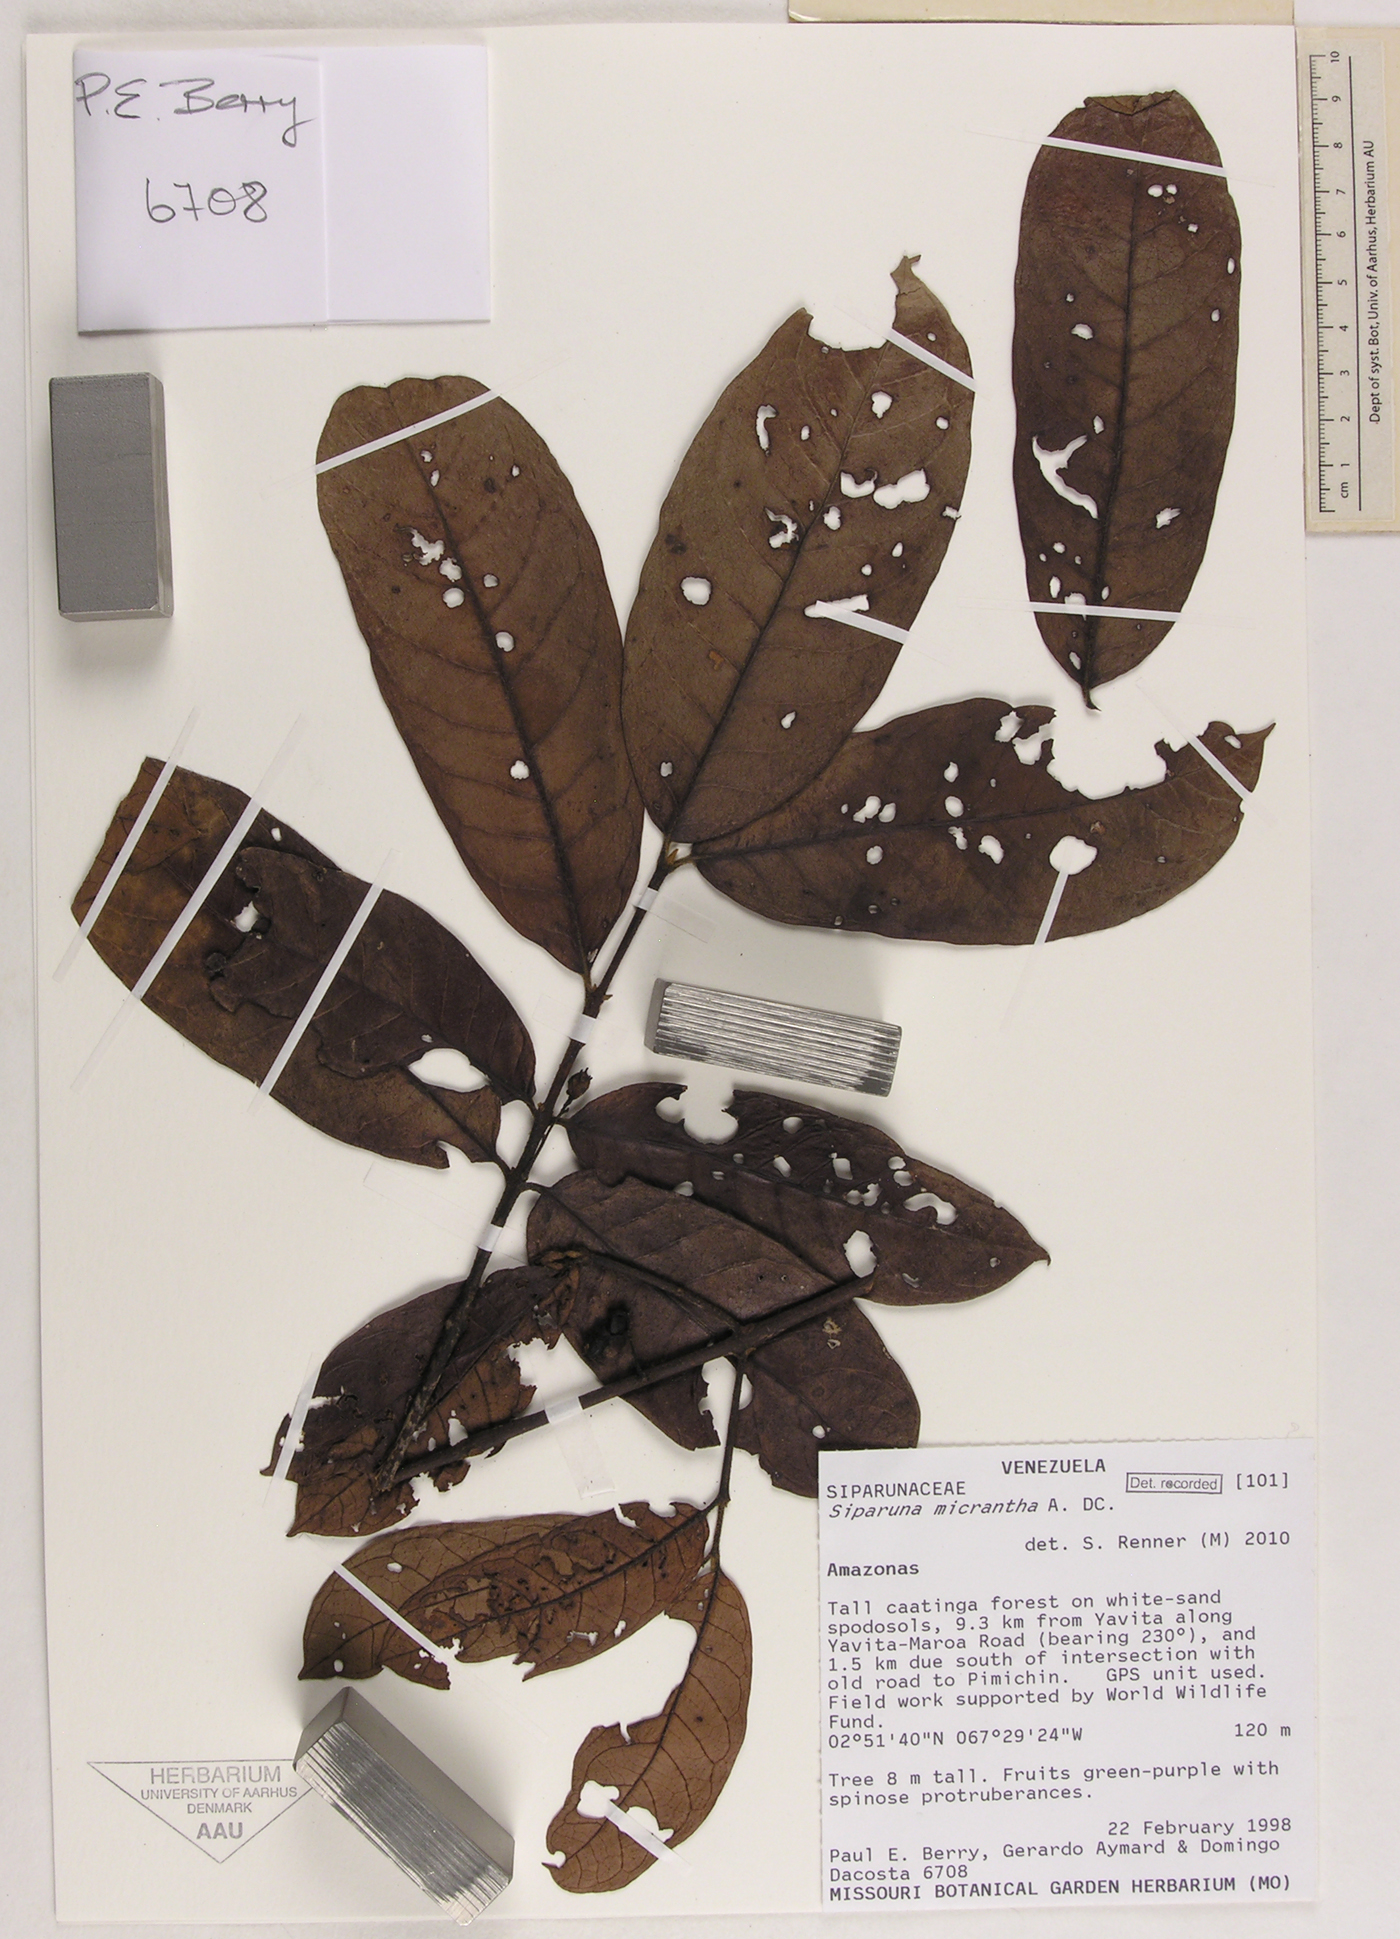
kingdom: Plantae
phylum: Tracheophyta
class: Magnoliopsida
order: Laurales
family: Siparunaceae
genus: Siparuna
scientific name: Siparuna reginae
